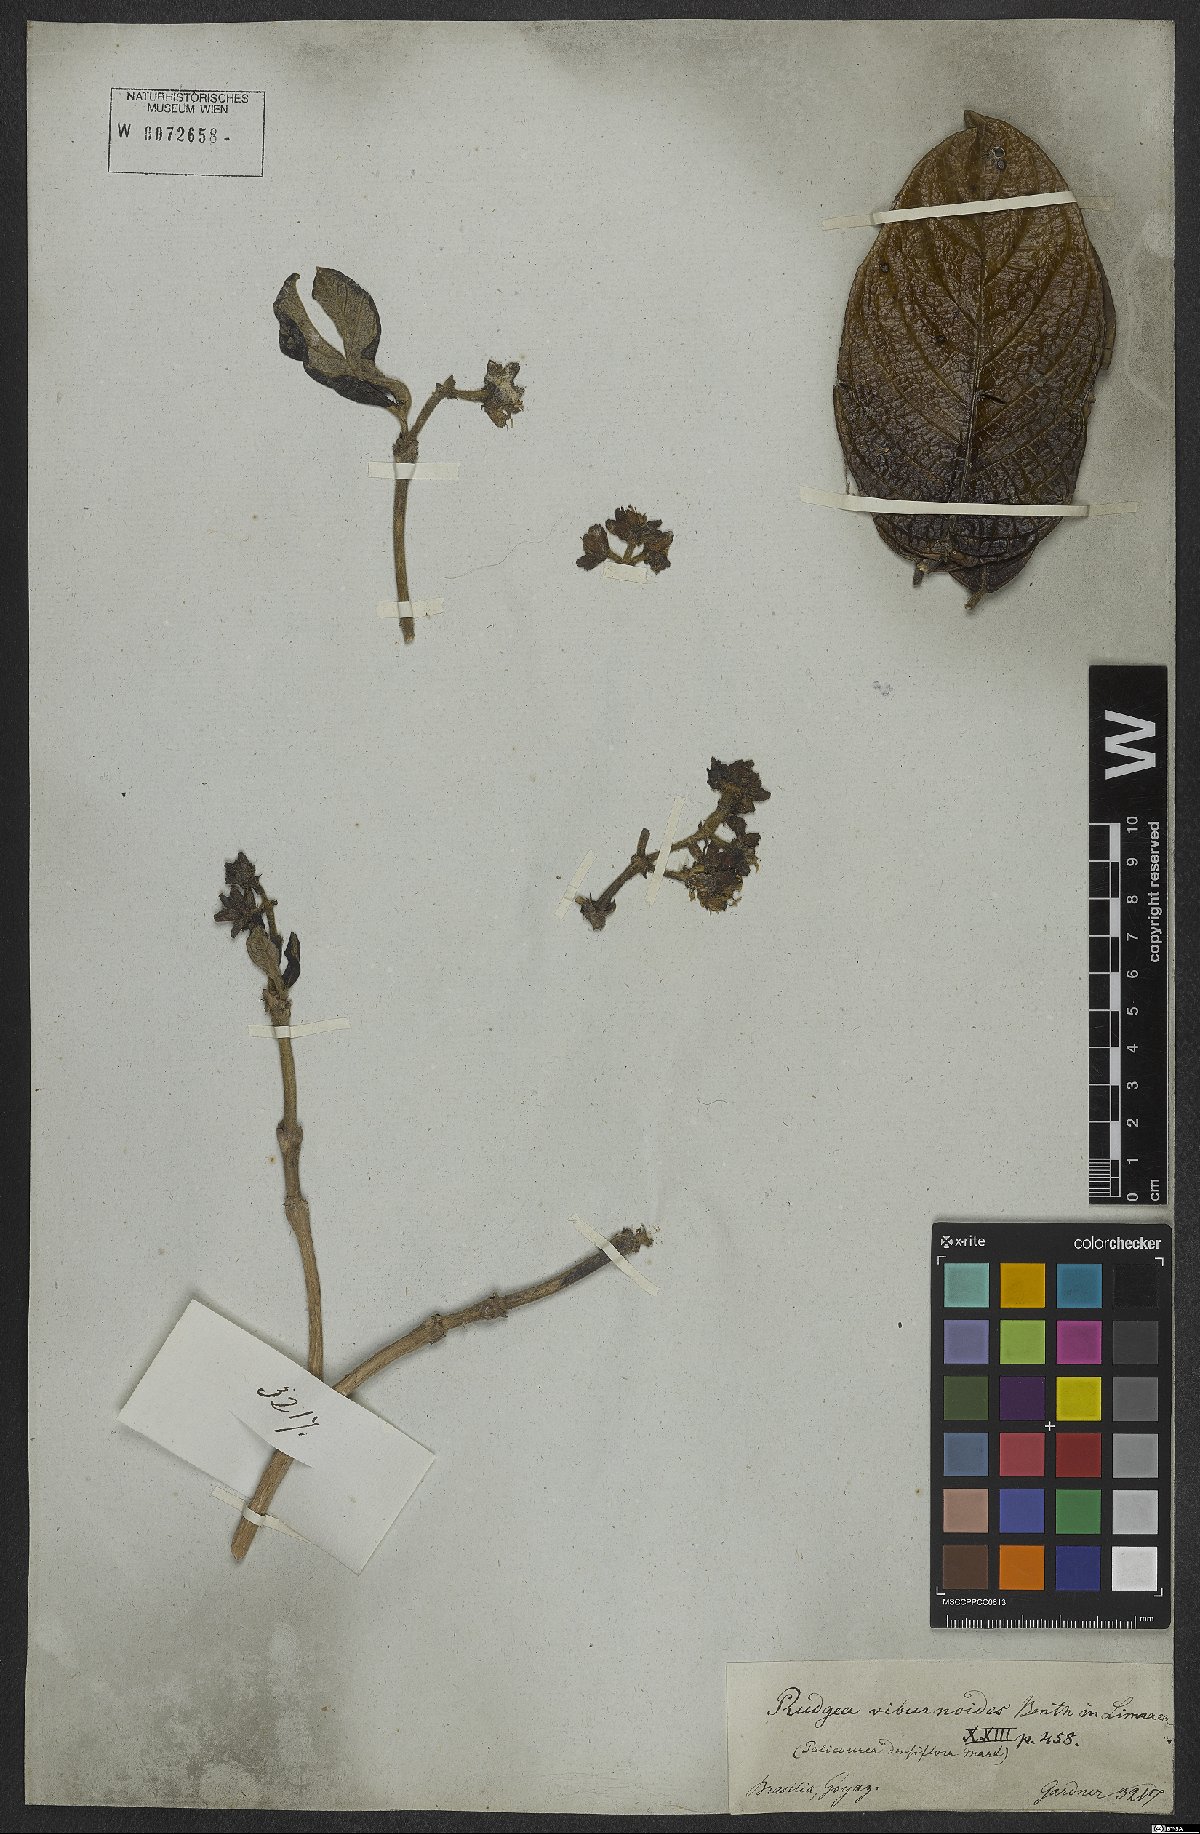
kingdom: Plantae
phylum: Tracheophyta
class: Magnoliopsida
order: Gentianales
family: Rubiaceae
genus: Rudgea
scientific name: Rudgea viburnoides
